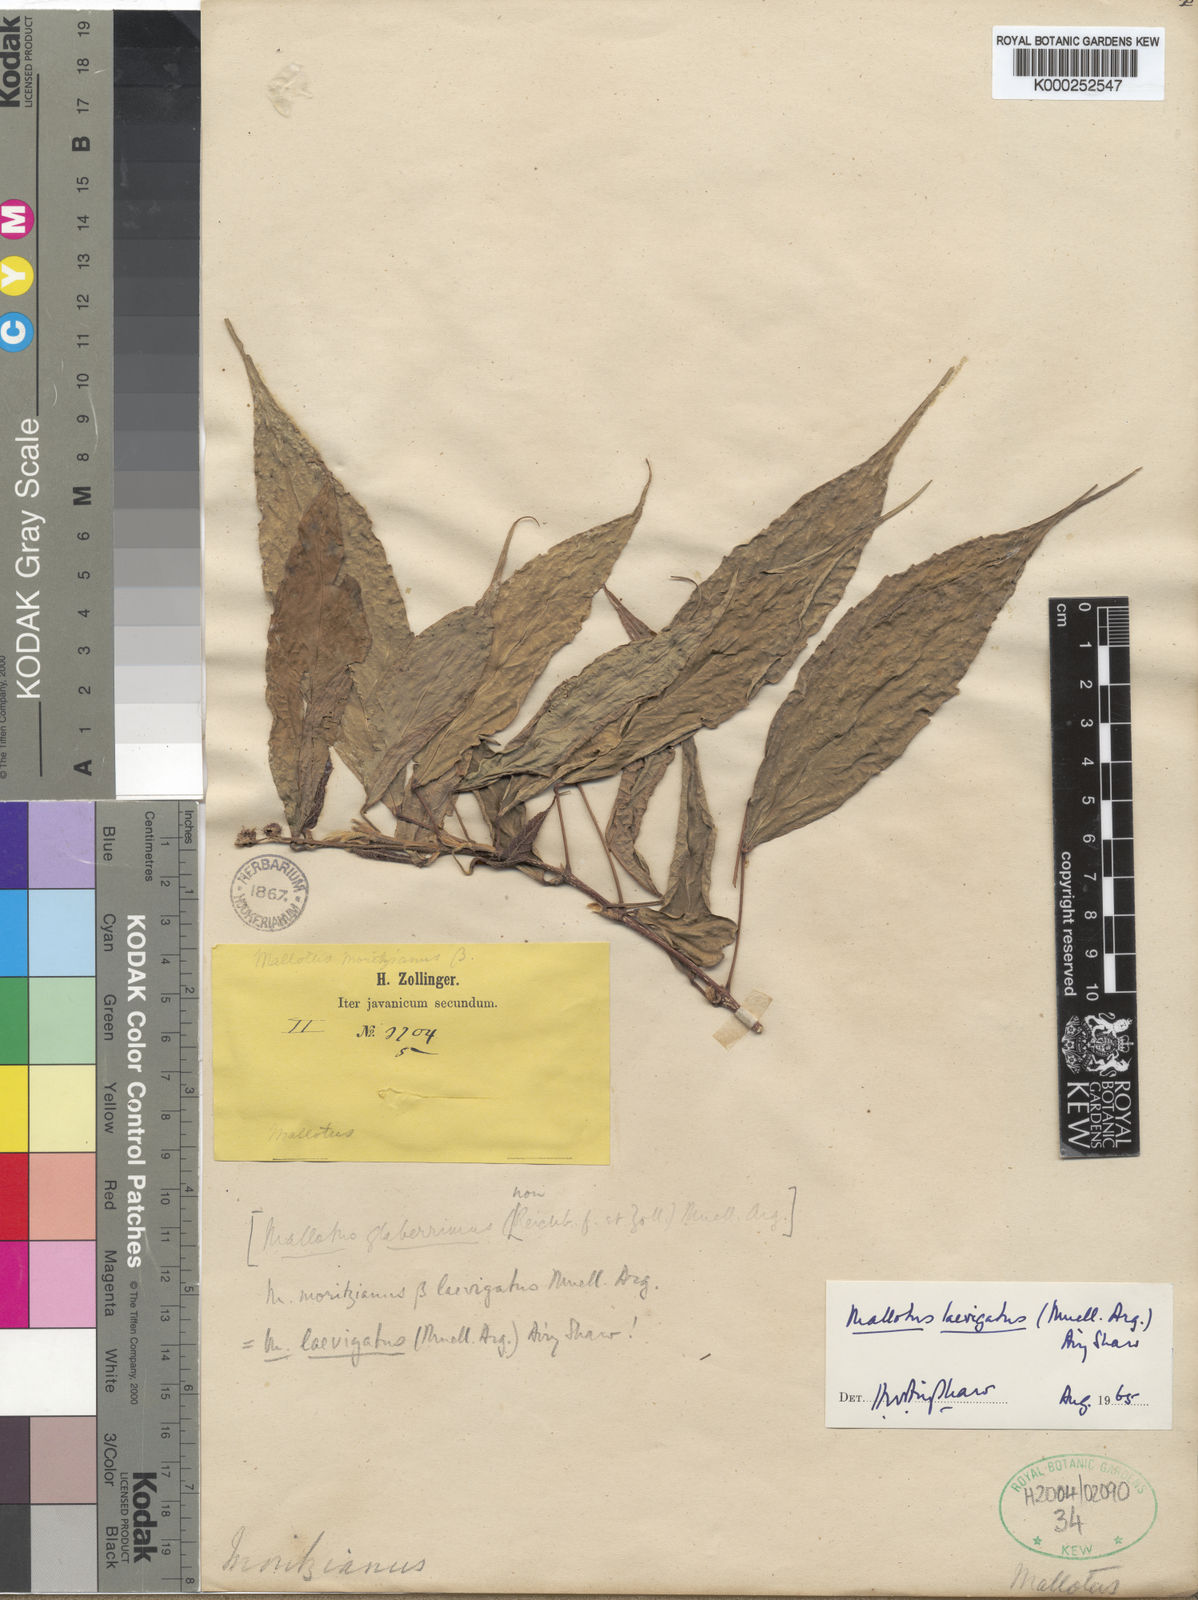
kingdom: Plantae
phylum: Tracheophyta
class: Magnoliopsida
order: Malpighiales
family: Euphorbiaceae
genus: Mallotus
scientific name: Mallotus lancifolius
